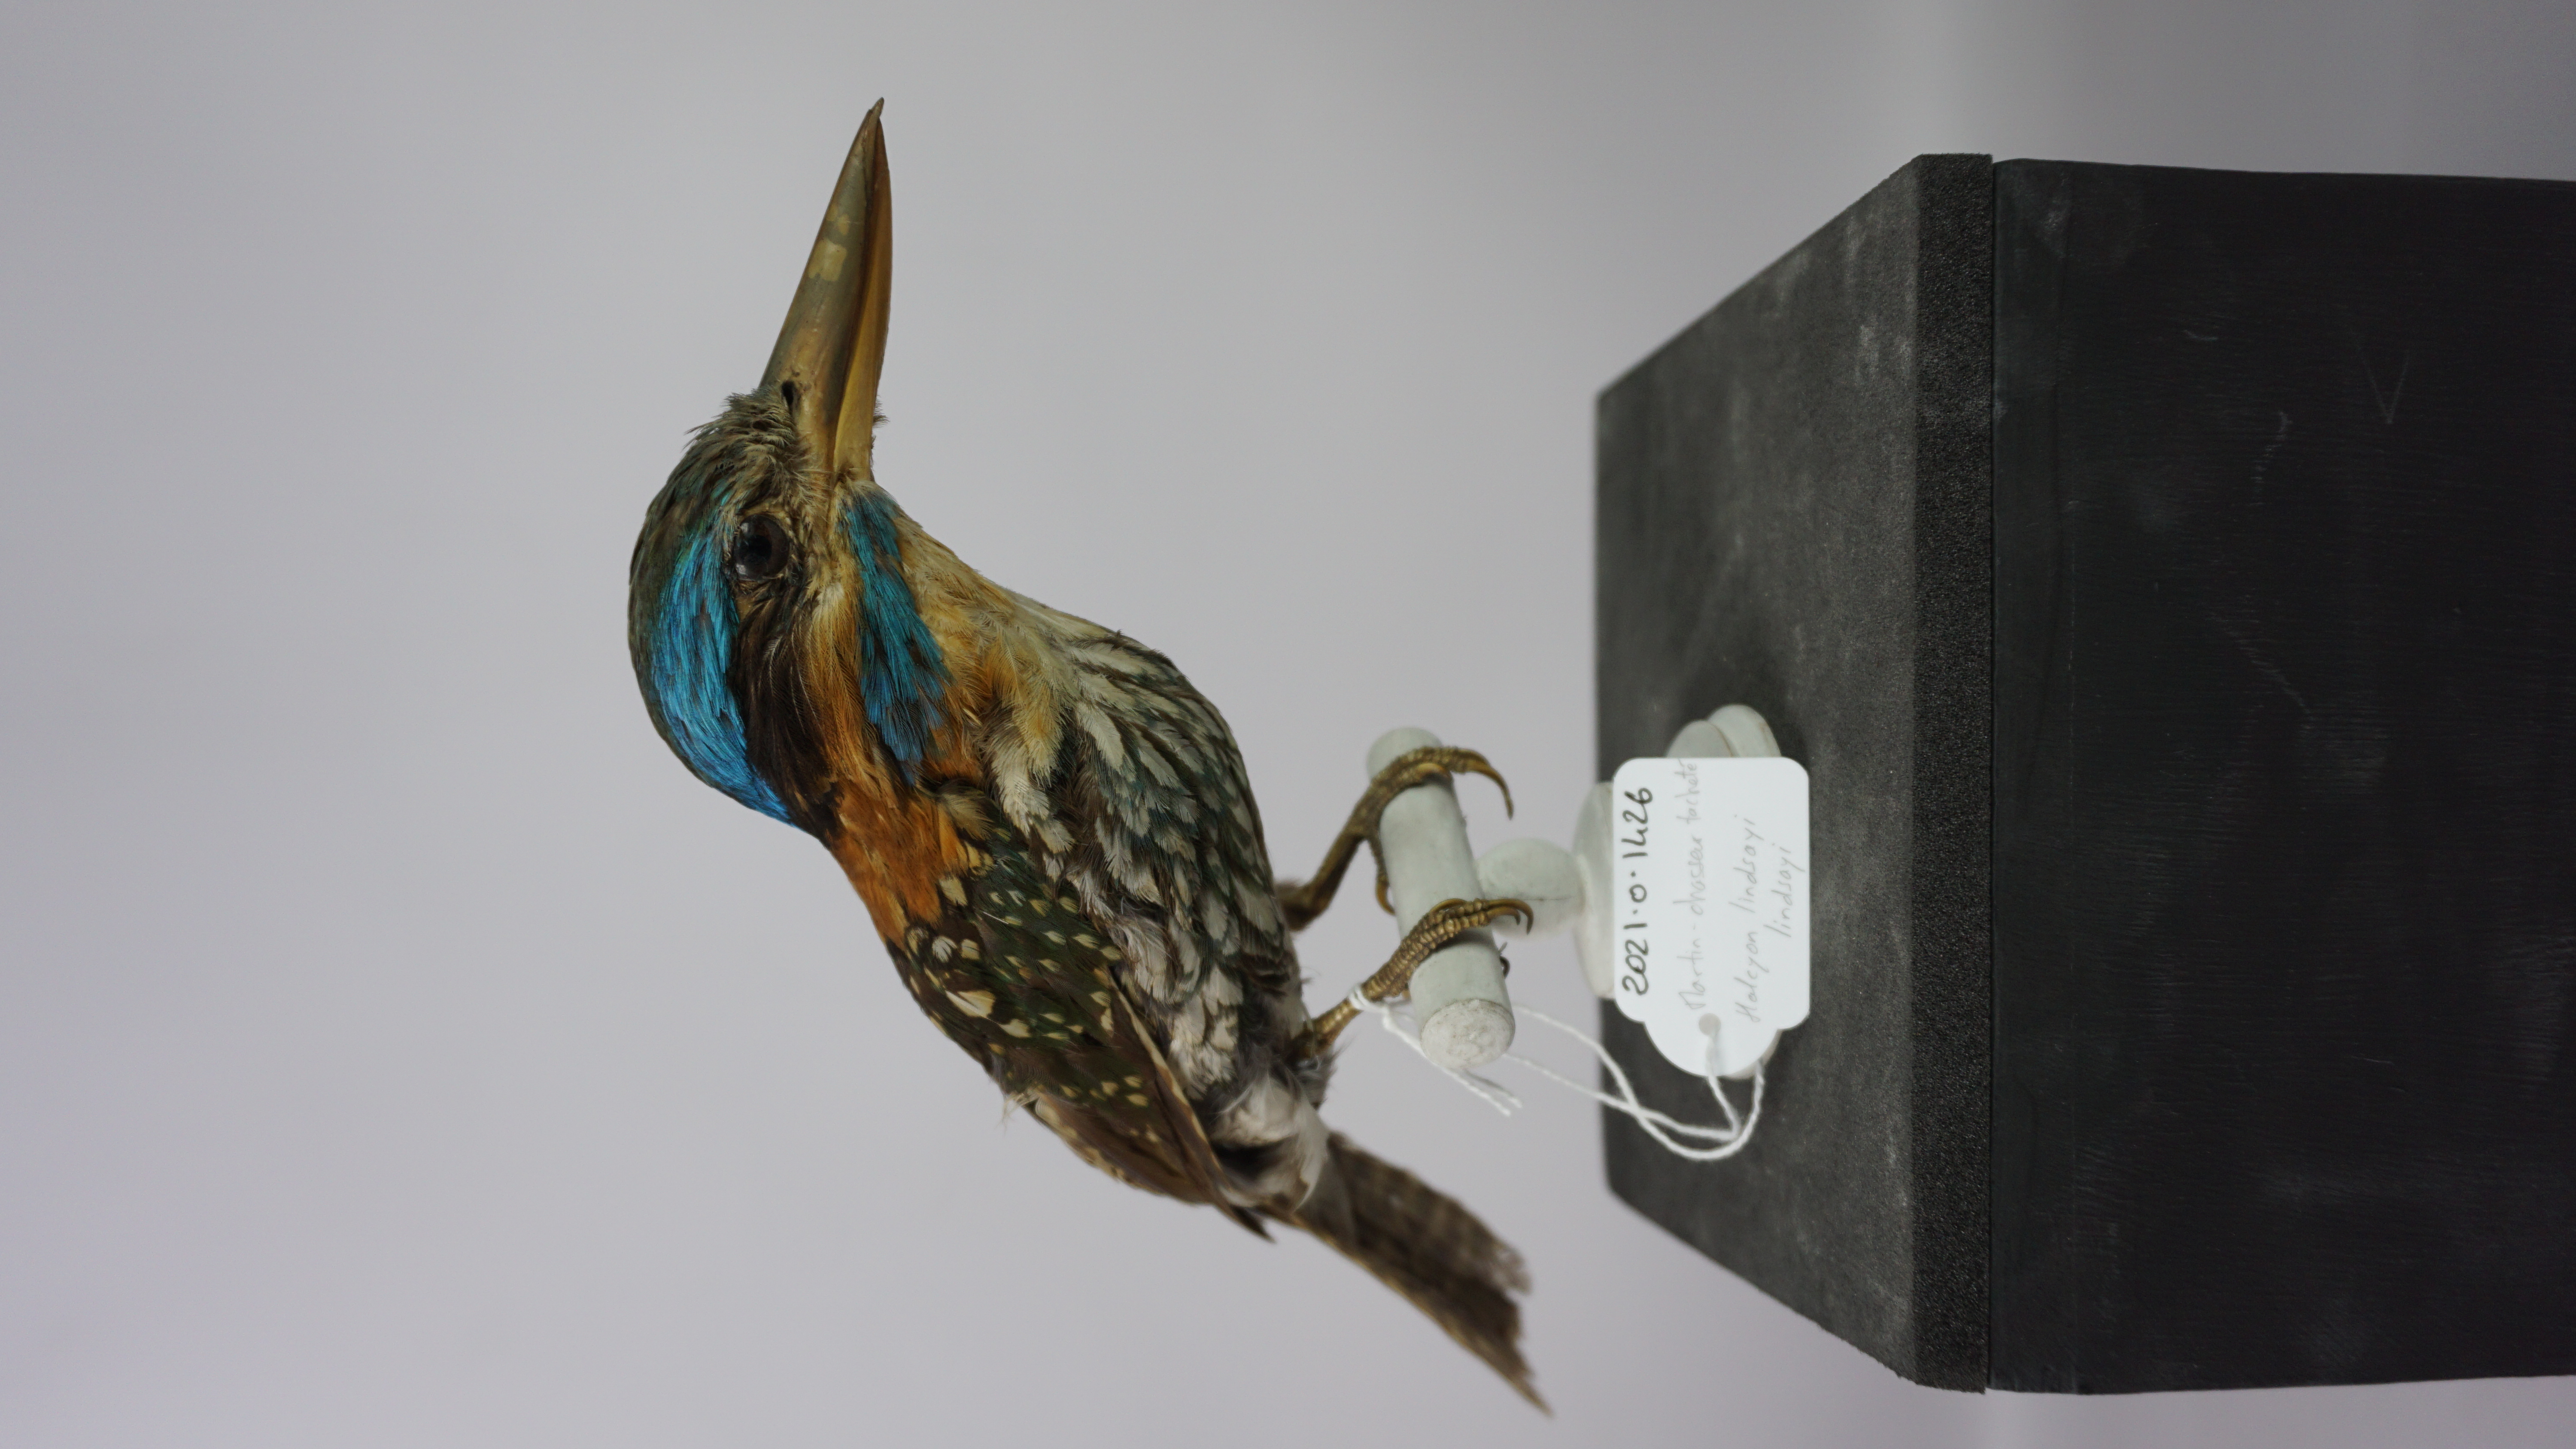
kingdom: Animalia
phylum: Chordata
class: Aves
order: Coraciiformes
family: Alcedinidae
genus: Actenoides
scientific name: Actenoides lindsayi
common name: Spotted wood kingfisher
